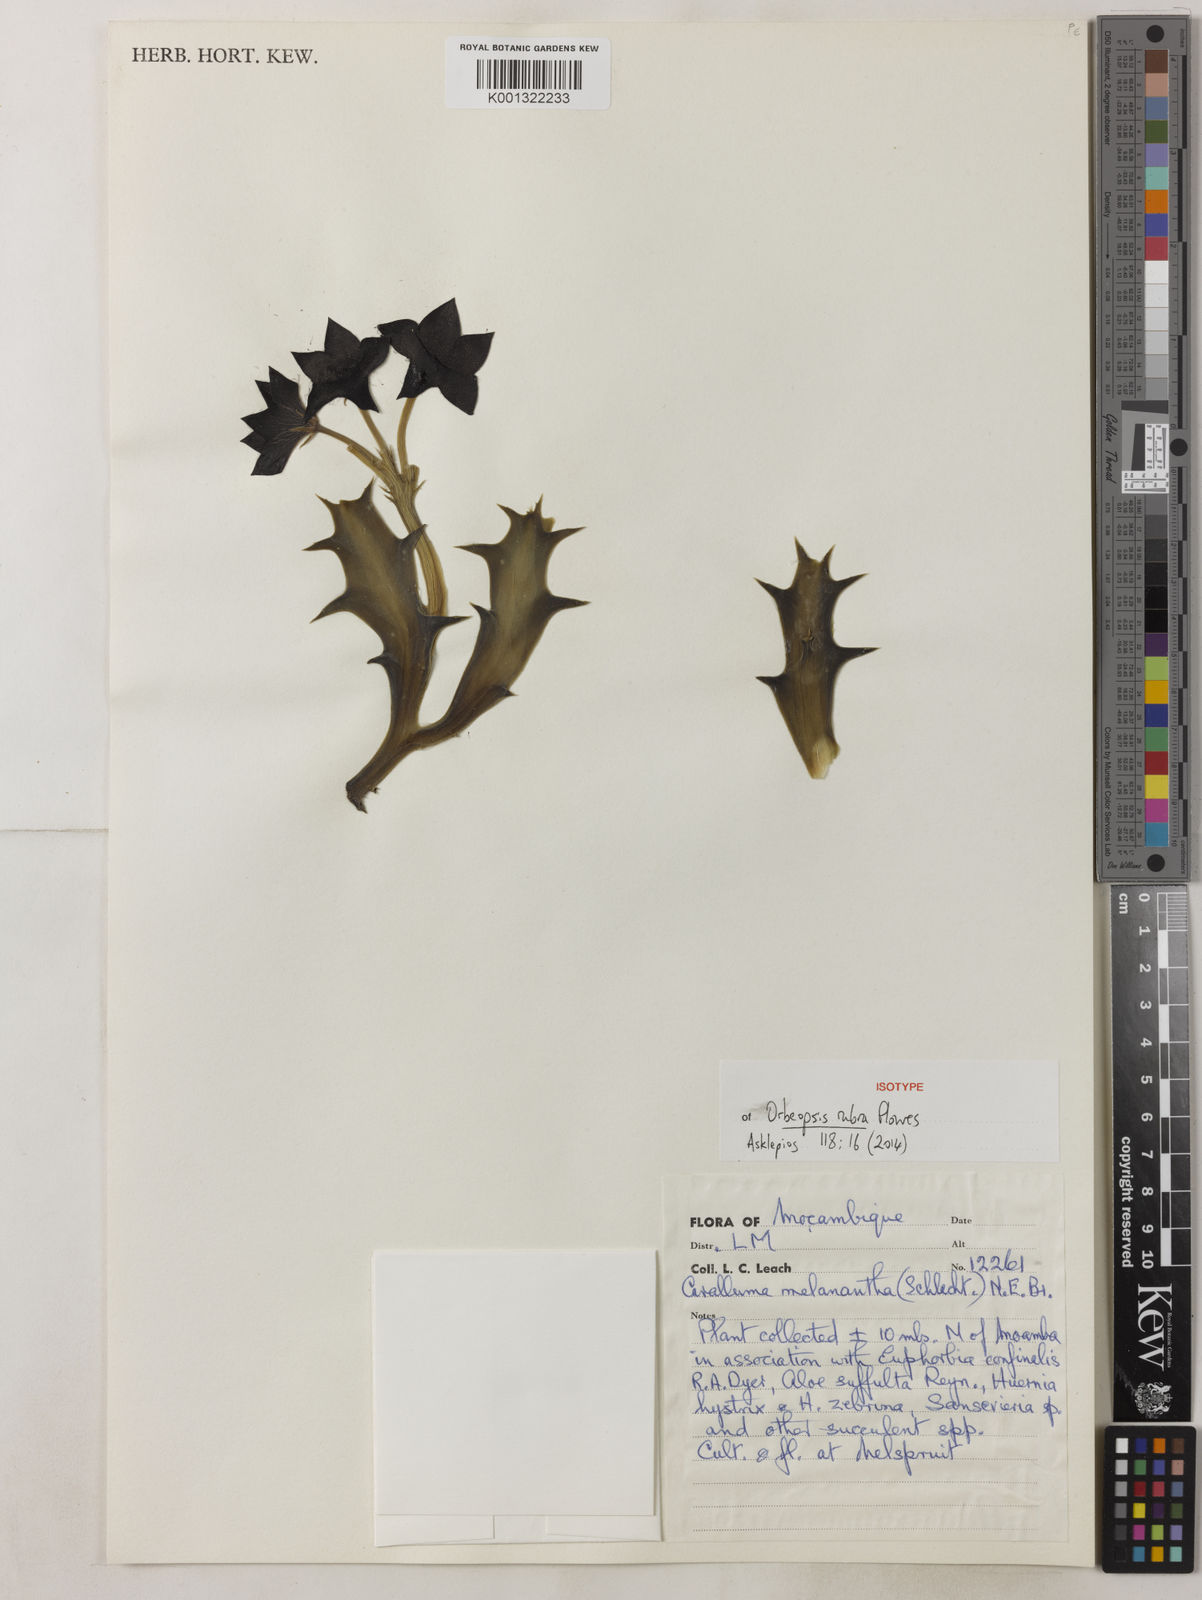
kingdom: Plantae
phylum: Tracheophyta
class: Magnoliopsida
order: Gentianales
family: Apocynaceae
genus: Ceropegia
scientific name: Ceropegia melanantha
